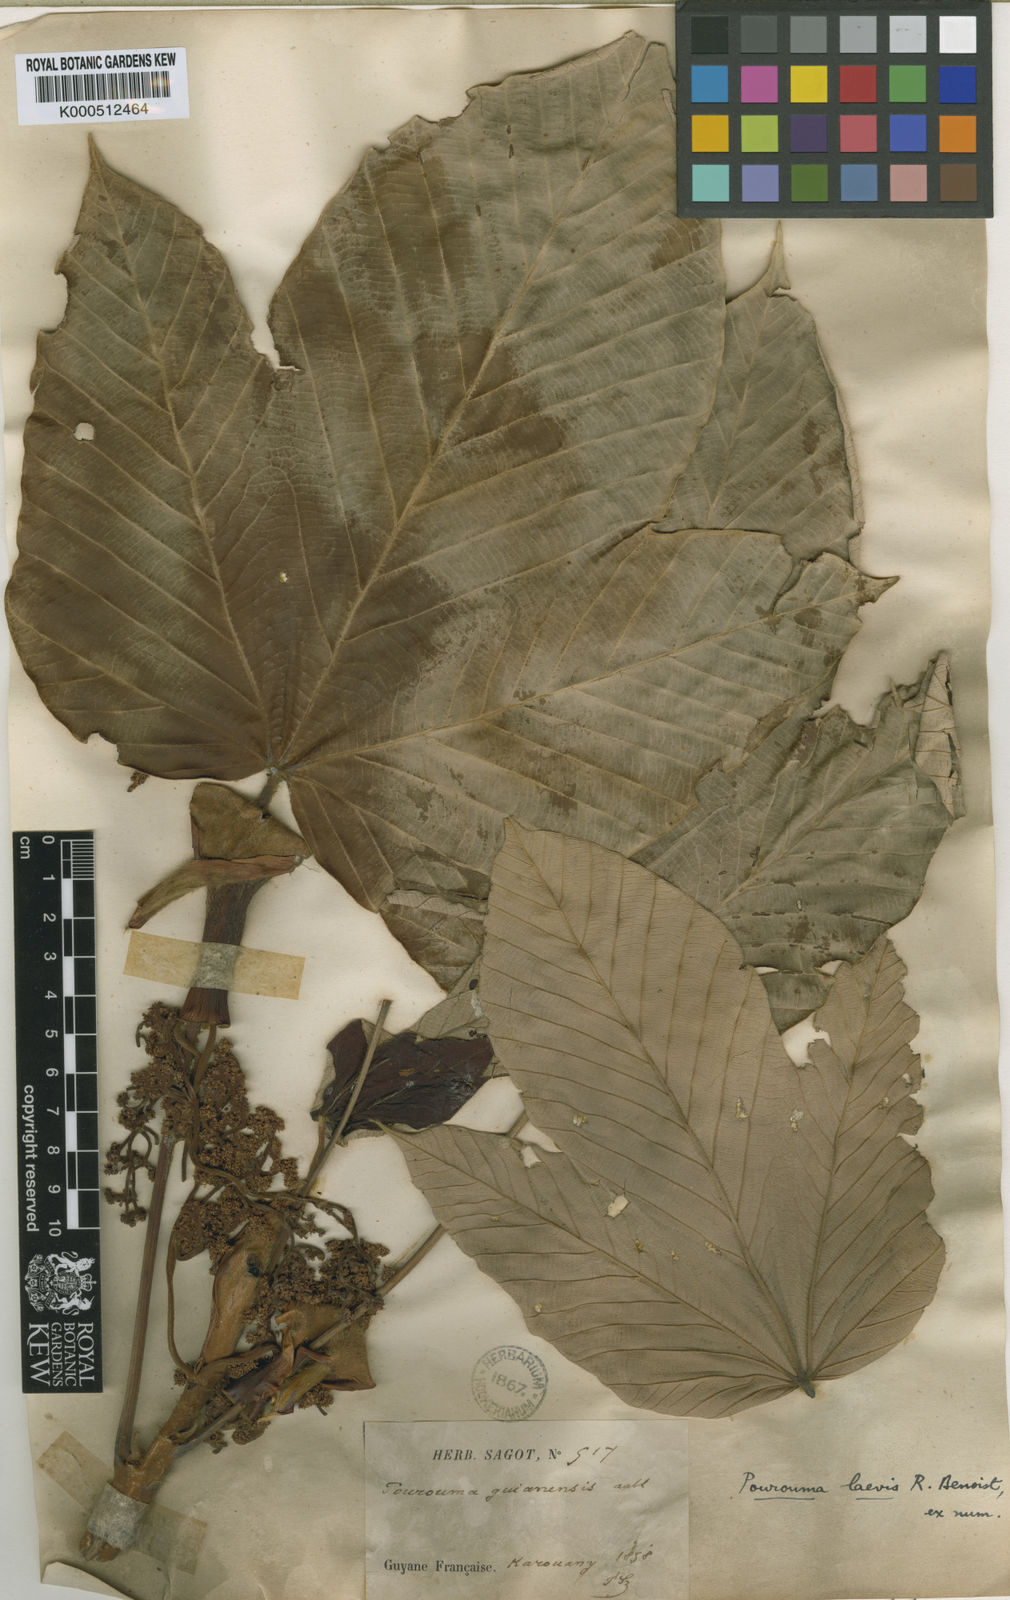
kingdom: Plantae
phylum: Tracheophyta
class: Magnoliopsida
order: Rosales
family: Urticaceae
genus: Pourouma
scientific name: Pourouma villosa
